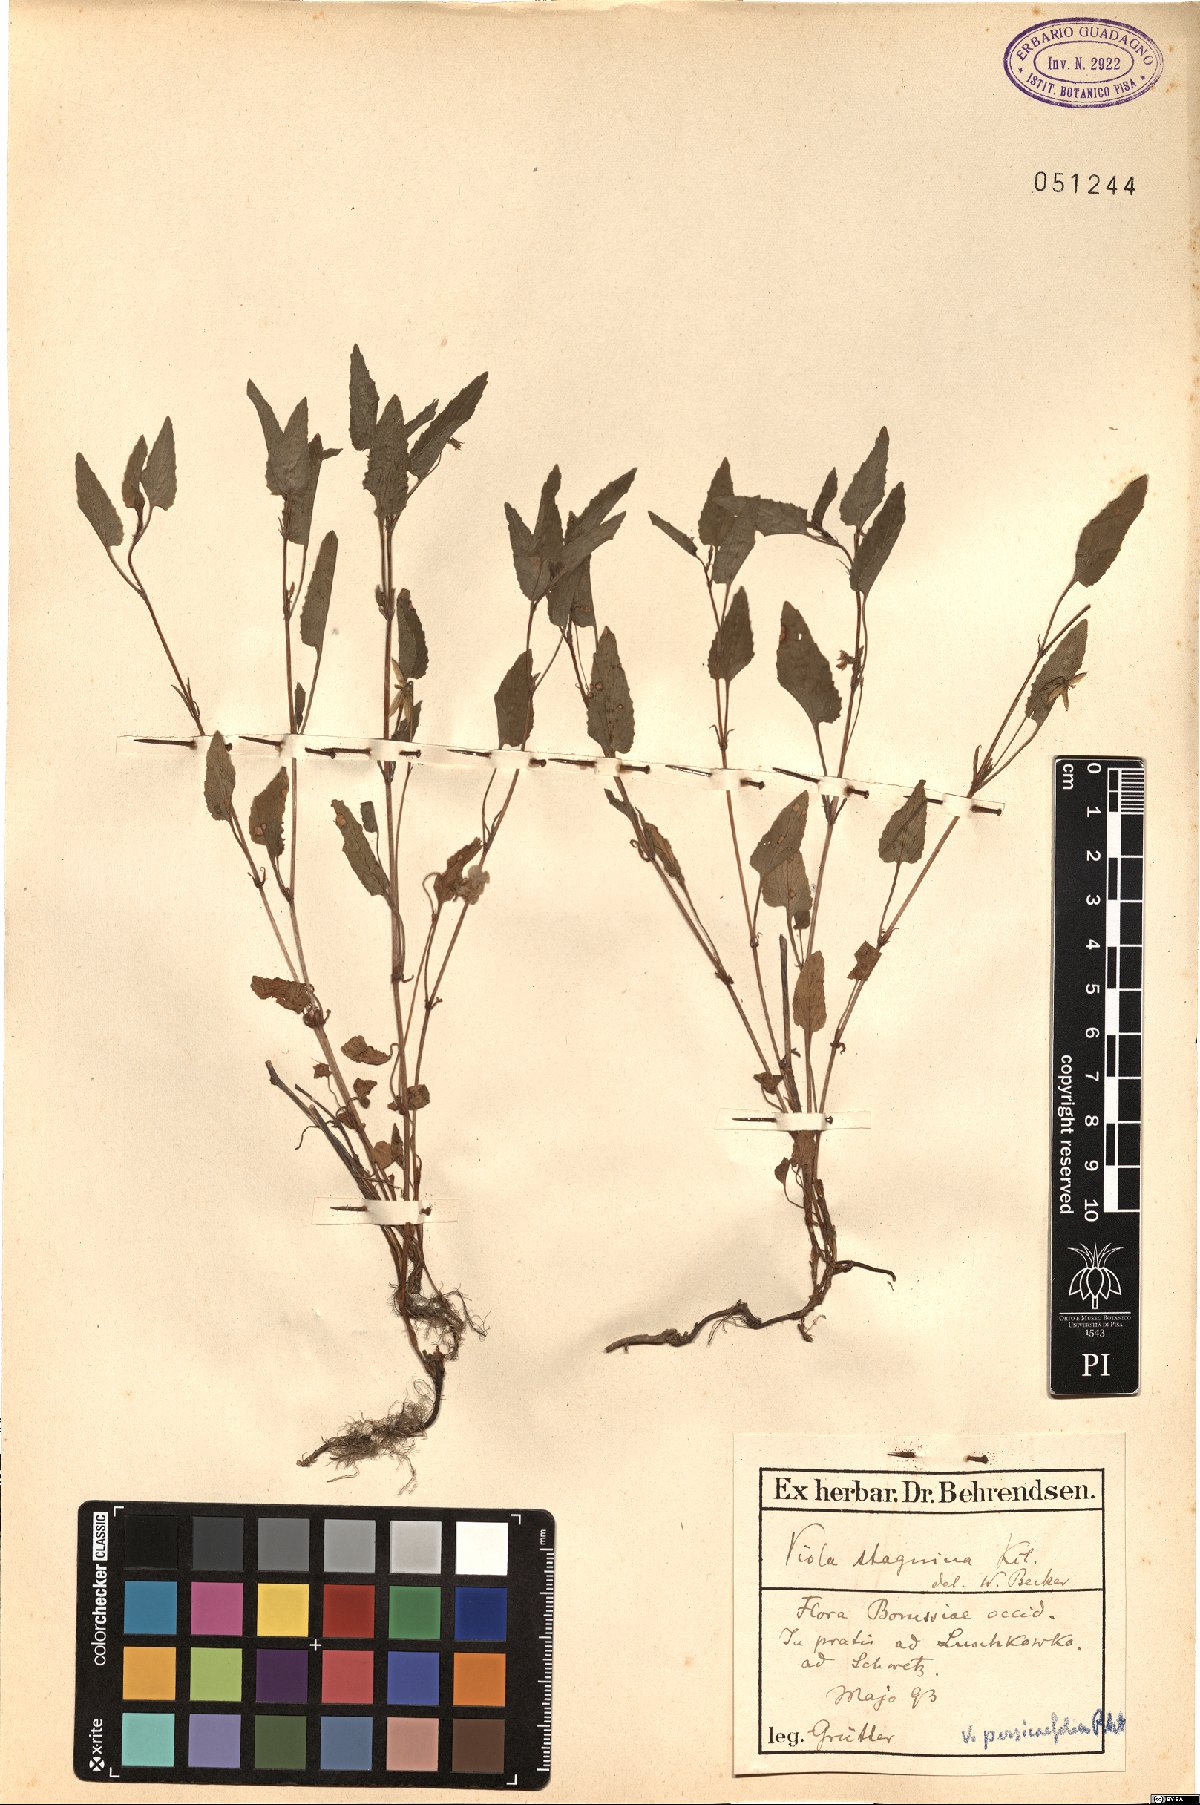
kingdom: Plantae
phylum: Tracheophyta
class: Magnoliopsida
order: Malpighiales
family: Violaceae
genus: Viola
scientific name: Viola stagnina
